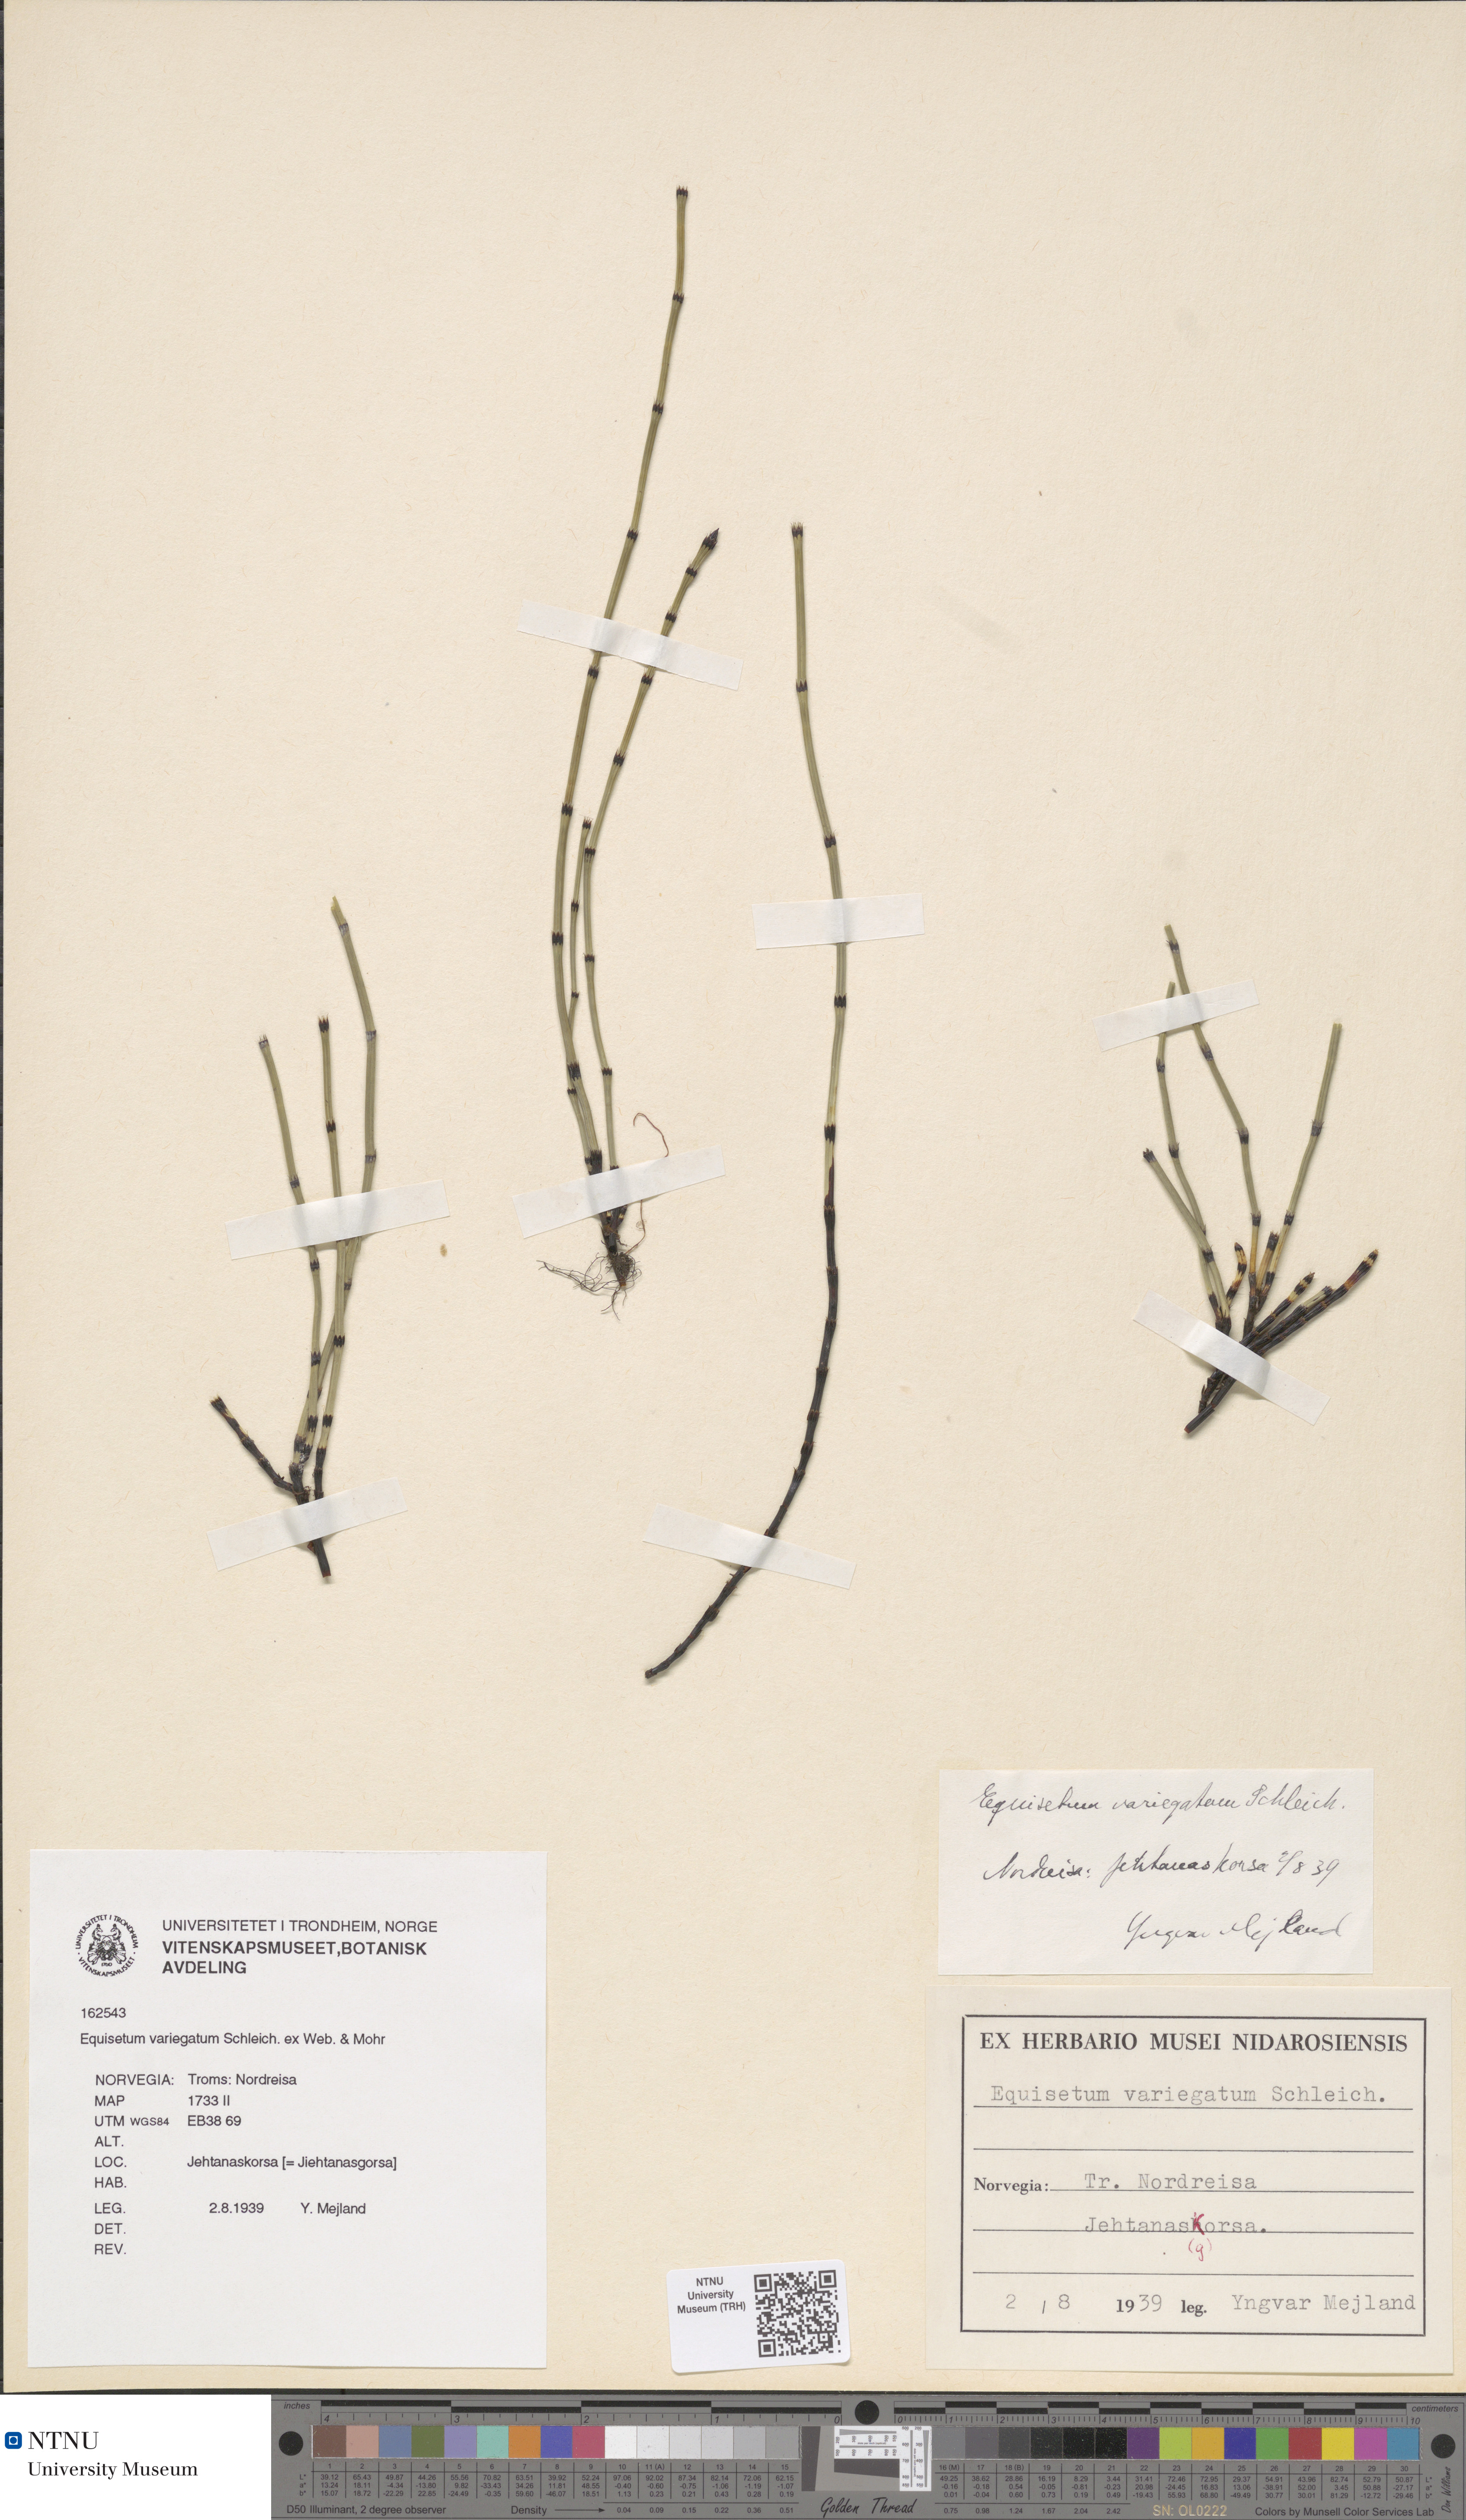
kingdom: Plantae
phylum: Tracheophyta
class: Polypodiopsida
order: Equisetales
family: Equisetaceae
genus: Equisetum
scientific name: Equisetum variegatum
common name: Variegated horsetail
